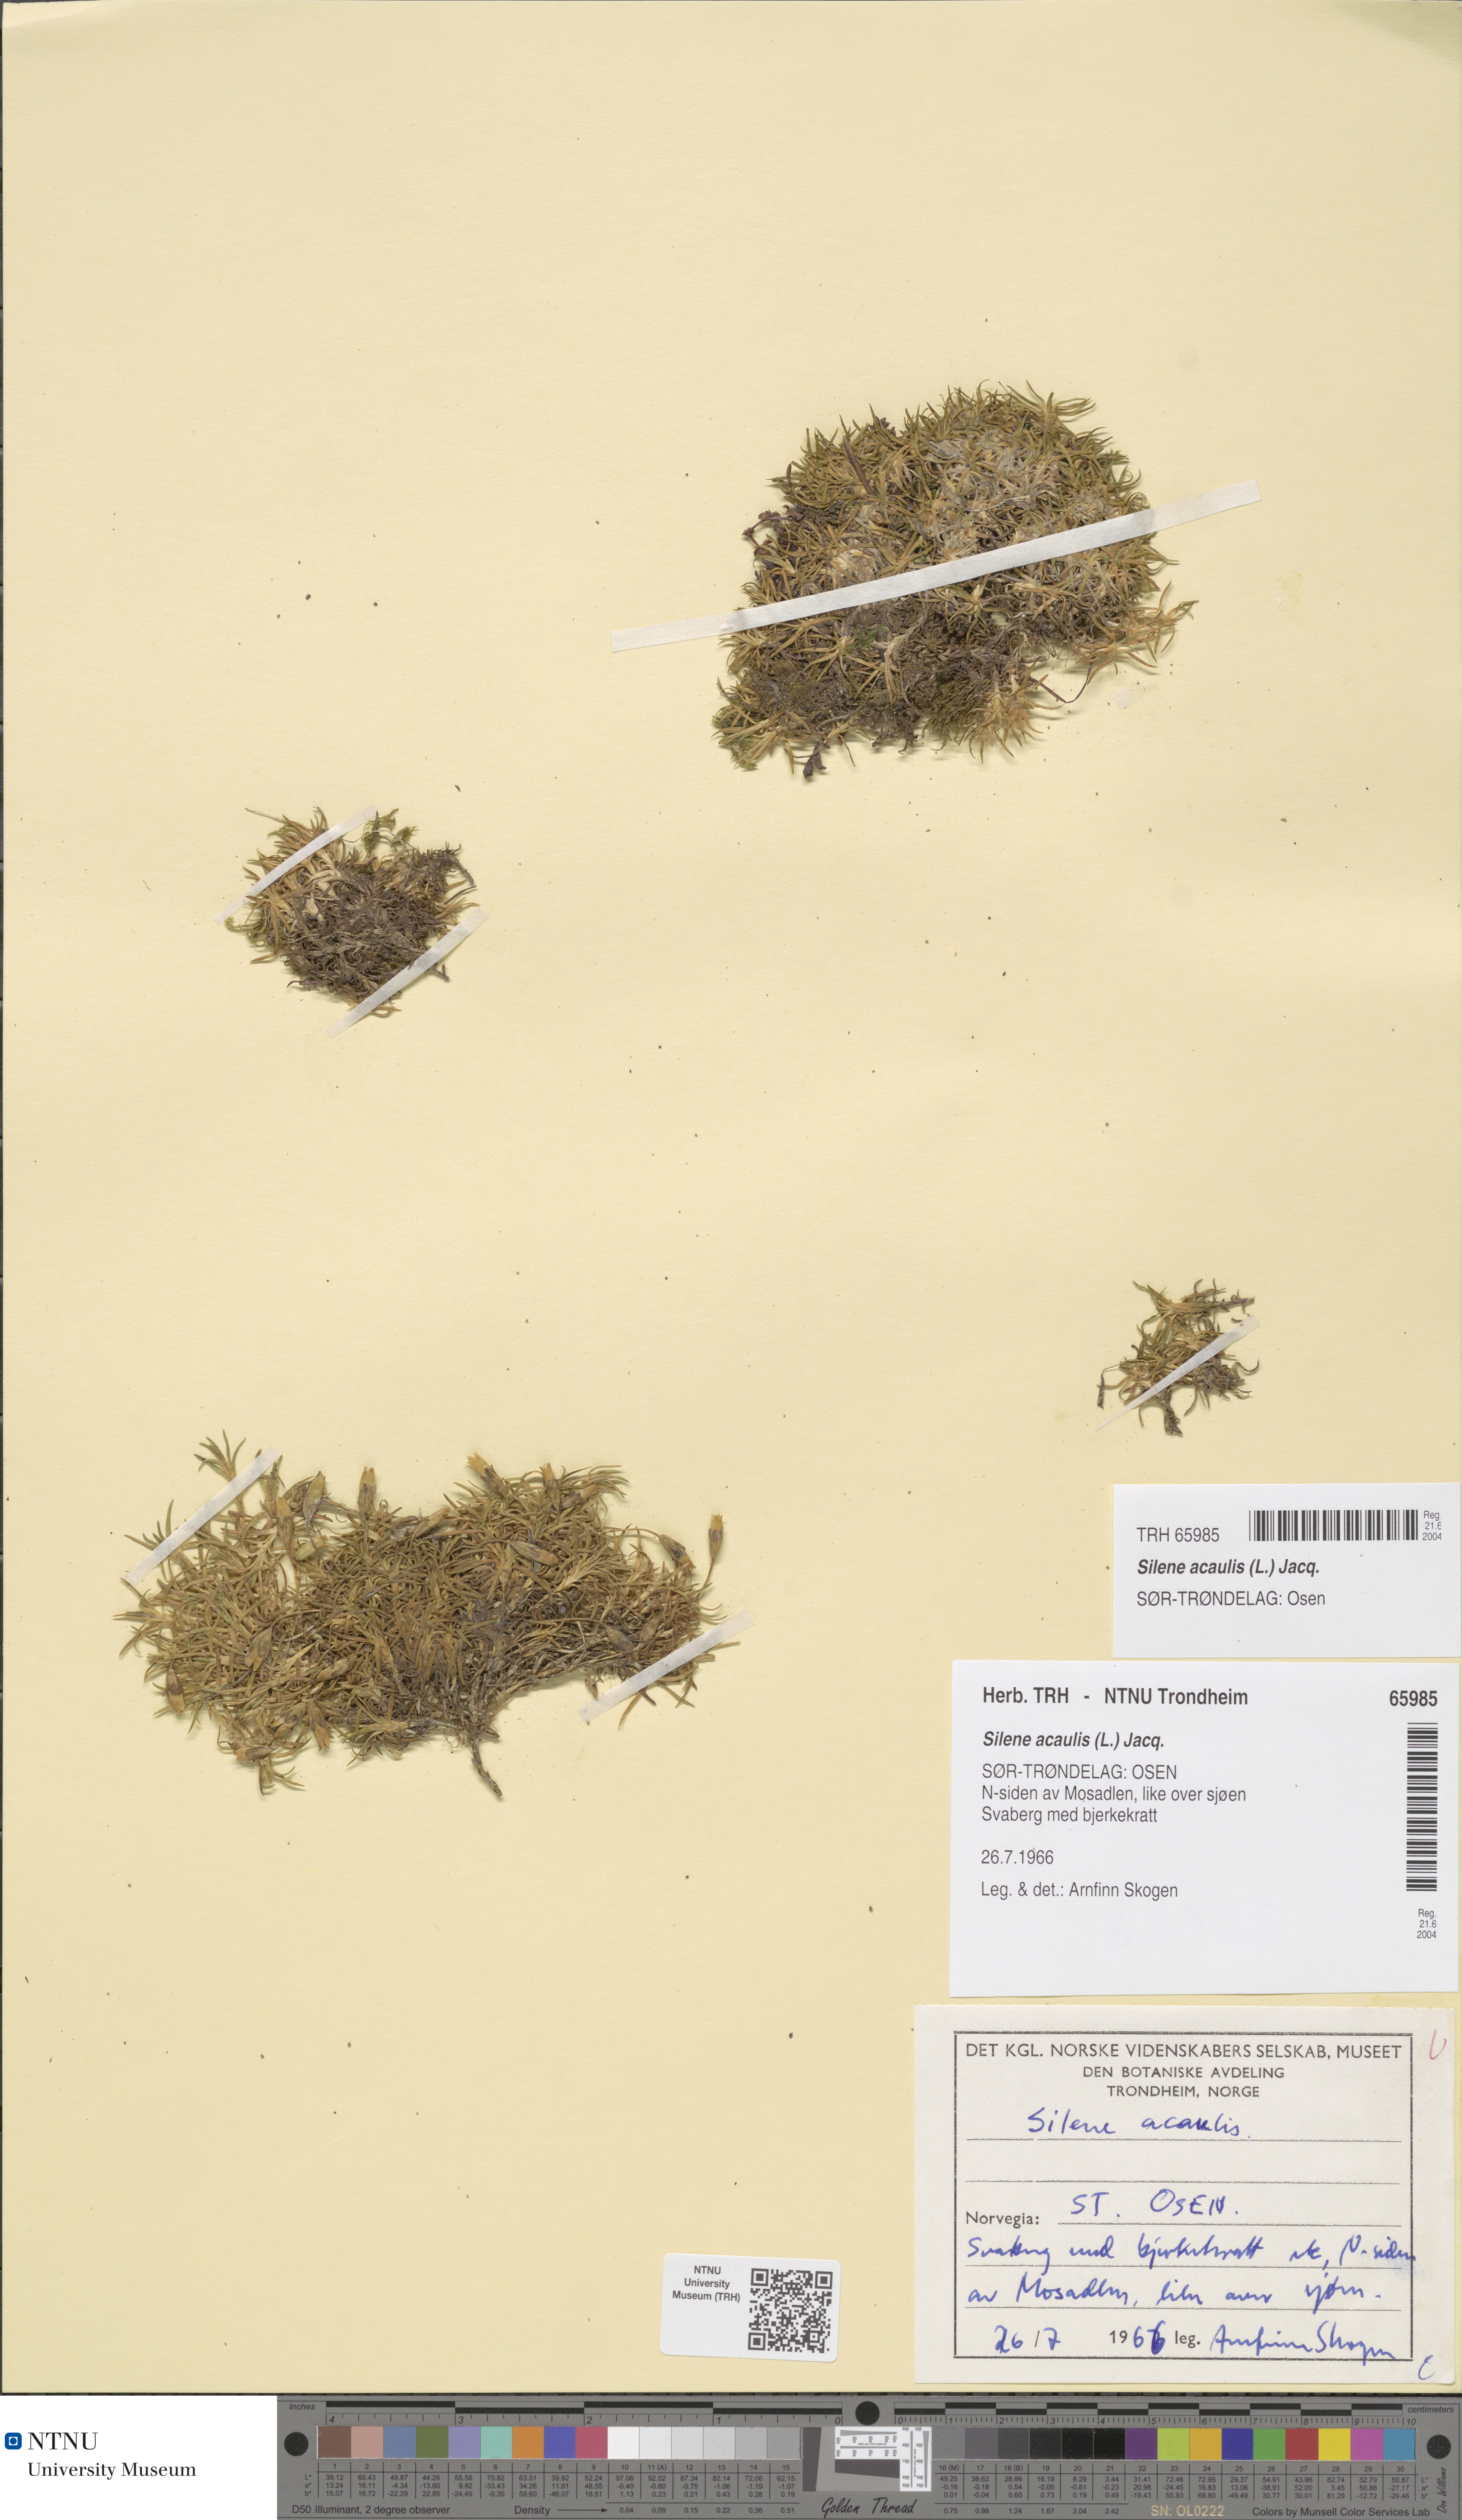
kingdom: Plantae
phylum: Tracheophyta
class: Magnoliopsida
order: Caryophyllales
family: Caryophyllaceae
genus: Silene
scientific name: Silene acaulis
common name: Moss campion
